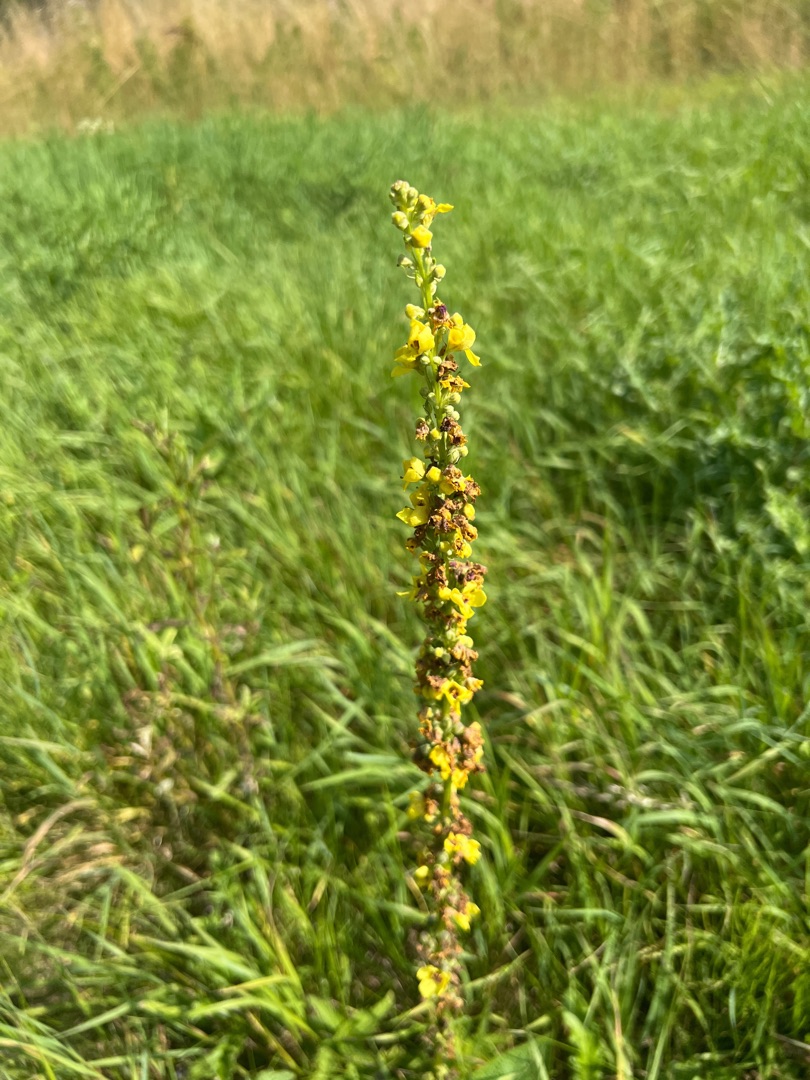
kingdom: Plantae
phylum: Tracheophyta
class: Magnoliopsida
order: Lamiales
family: Scrophulariaceae
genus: Verbascum
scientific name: Verbascum nigrum
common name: Mørk kongelys
